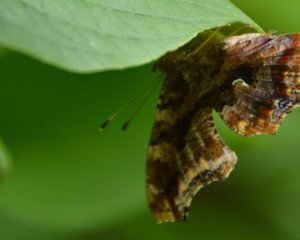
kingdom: Animalia
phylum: Arthropoda
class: Insecta
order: Lepidoptera
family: Nymphalidae
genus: Polygonia
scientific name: Polygonia comma
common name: Eastern Comma
